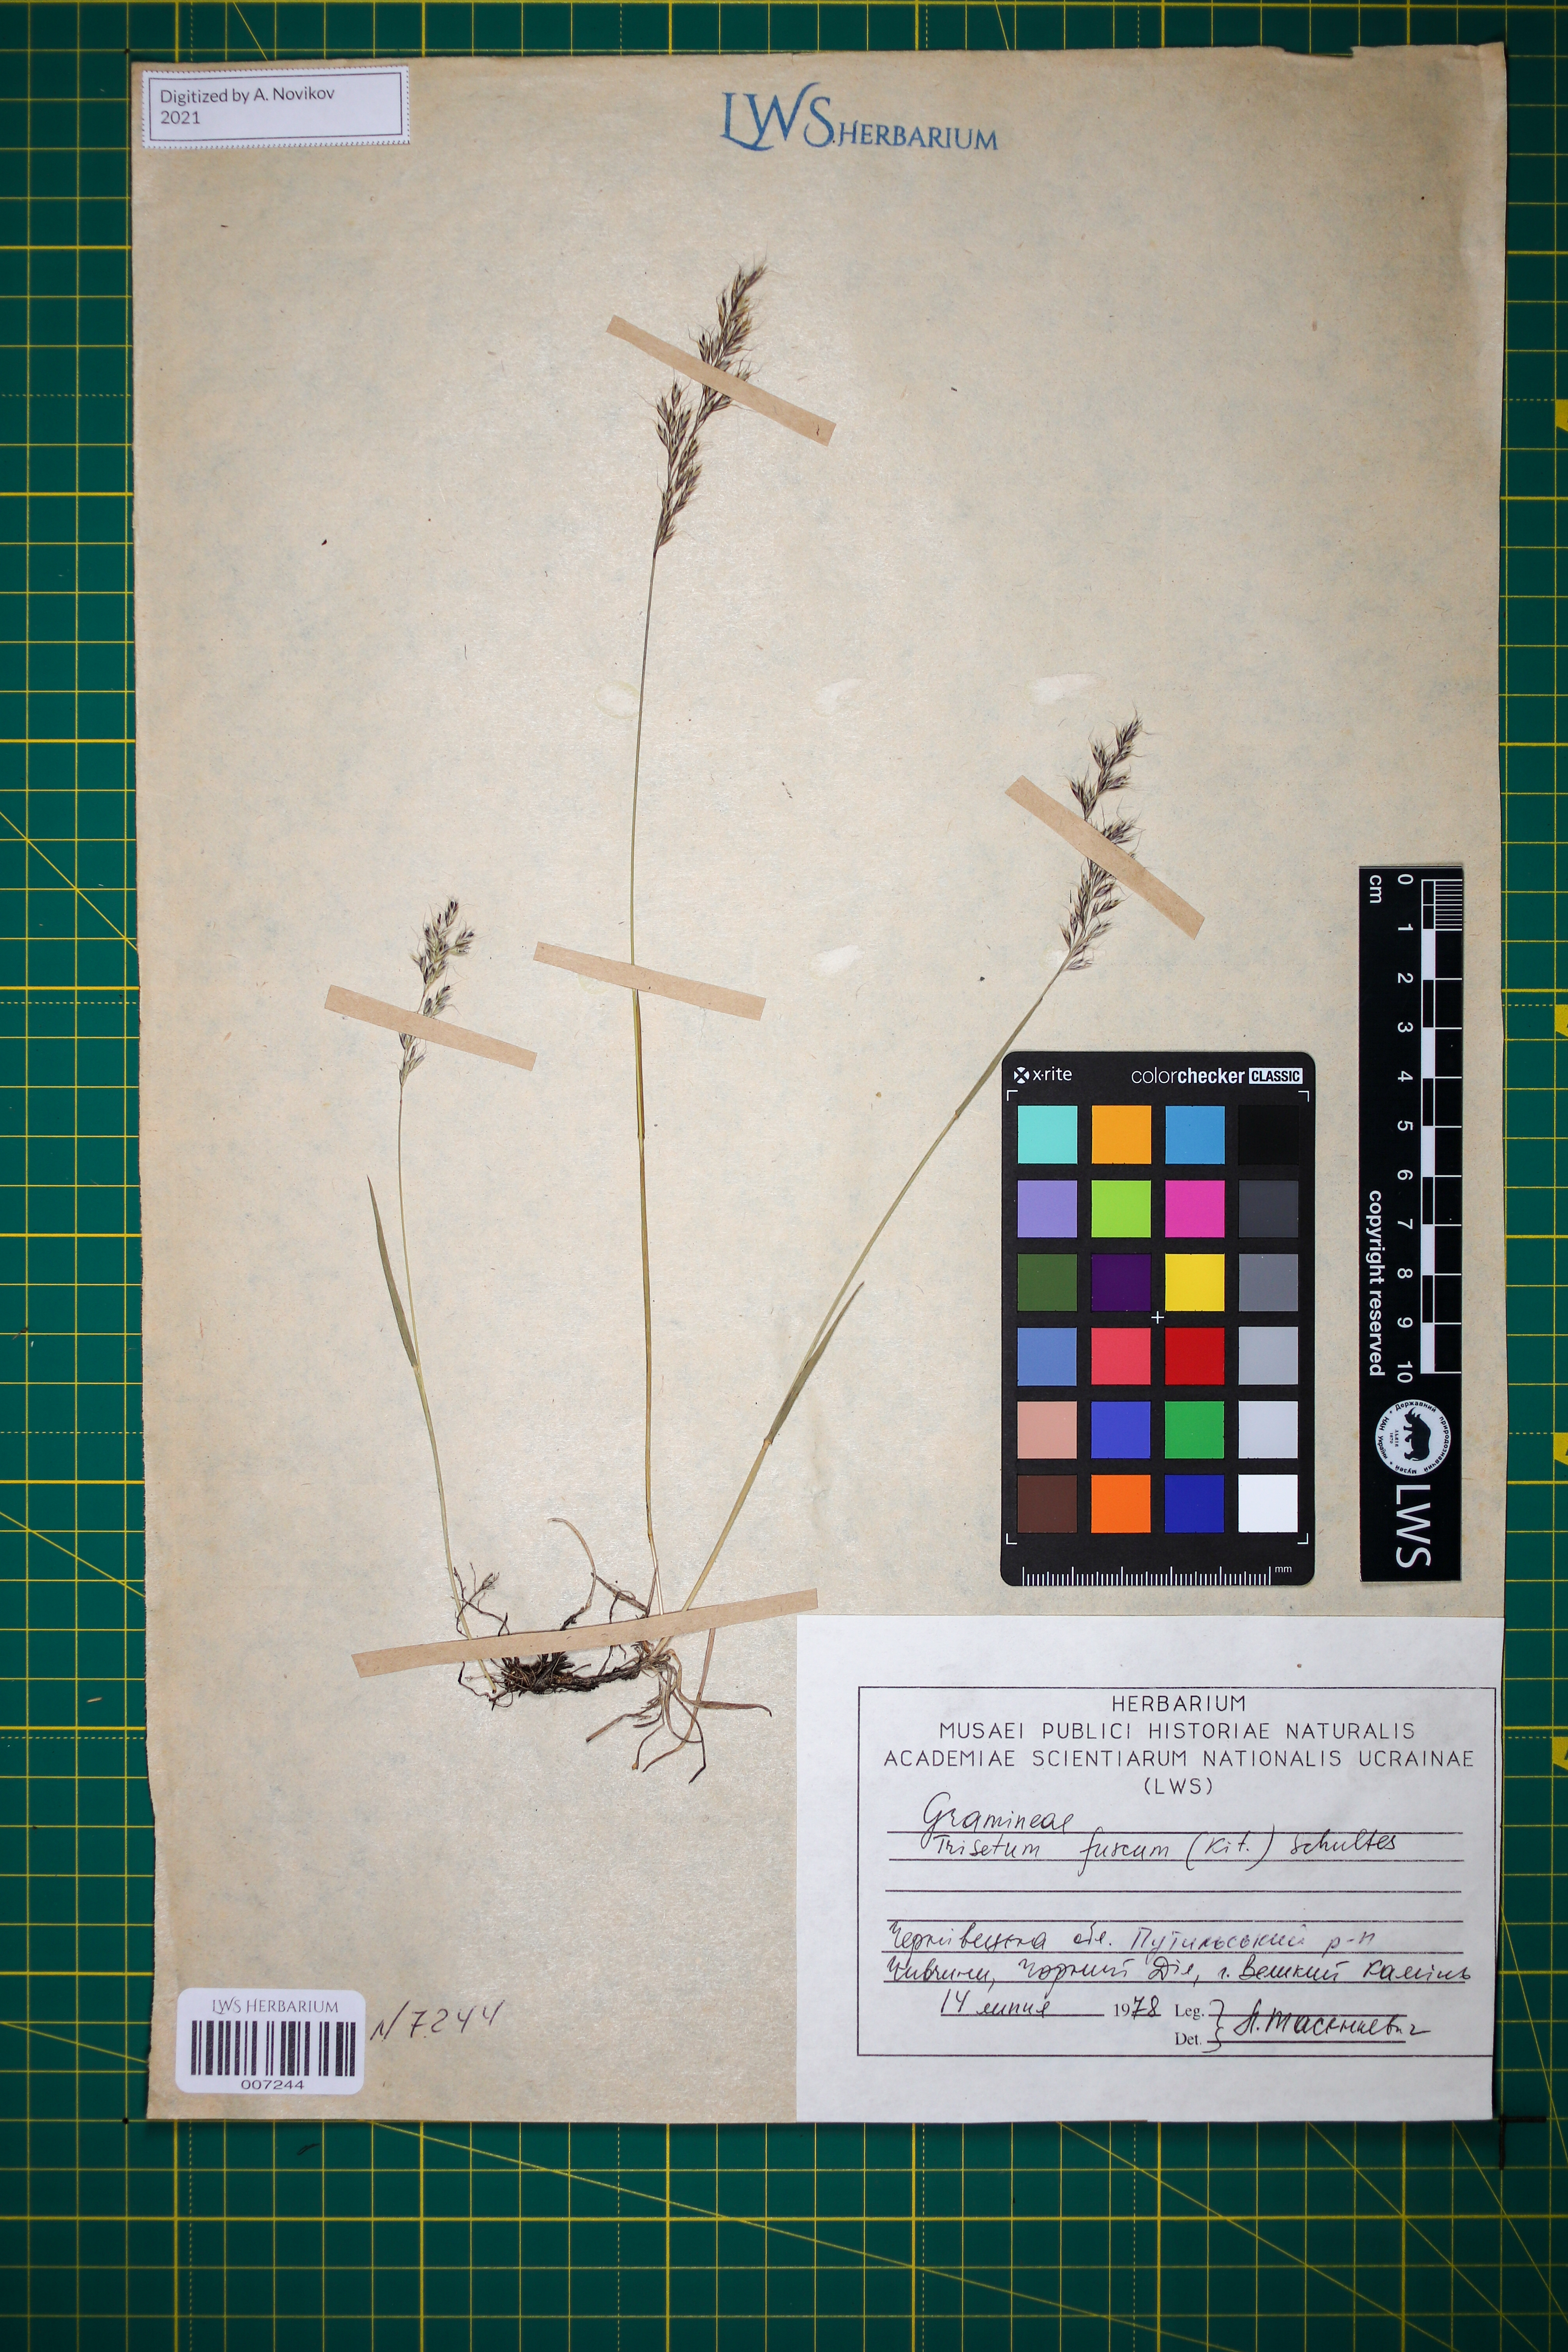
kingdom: Plantae
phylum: Tracheophyta
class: Liliopsida
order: Poales
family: Poaceae
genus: Trisetum
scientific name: Trisetum fuscum
